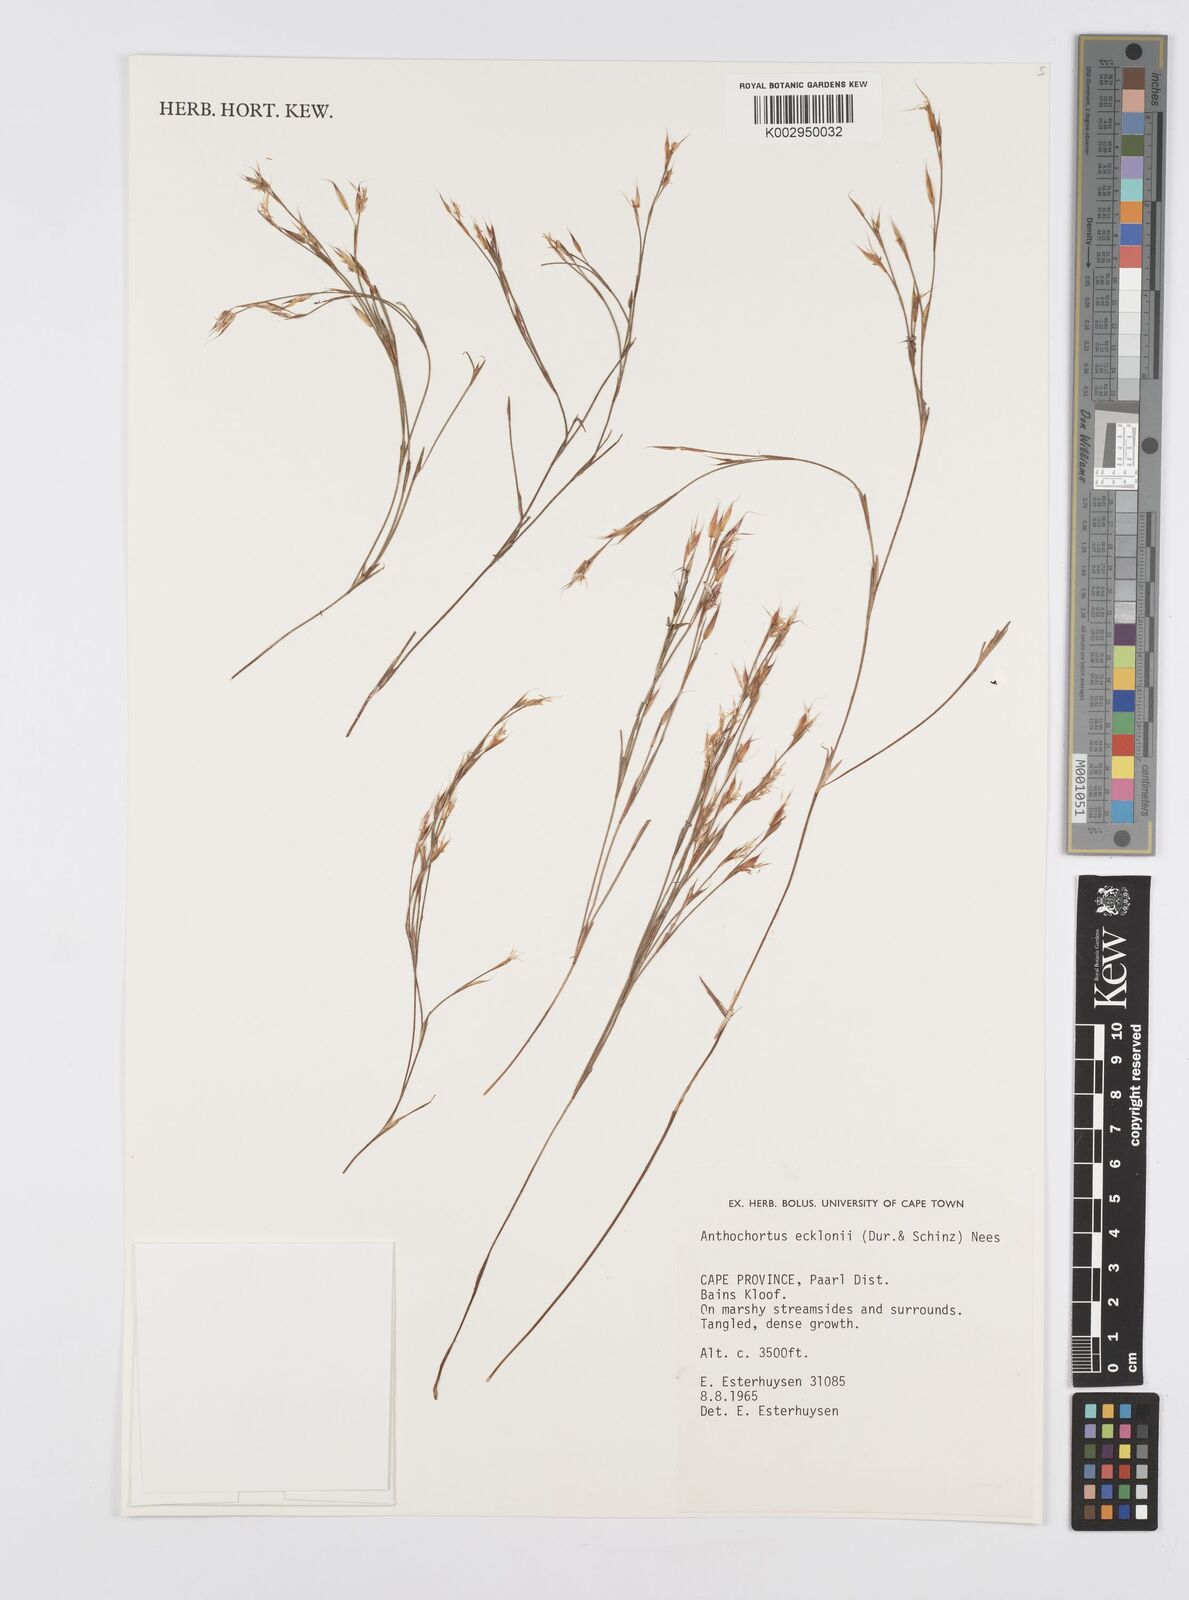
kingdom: Plantae
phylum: Tracheophyta
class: Liliopsida
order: Poales
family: Restionaceae
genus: Anthochortus
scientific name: Anthochortus ecklonii
